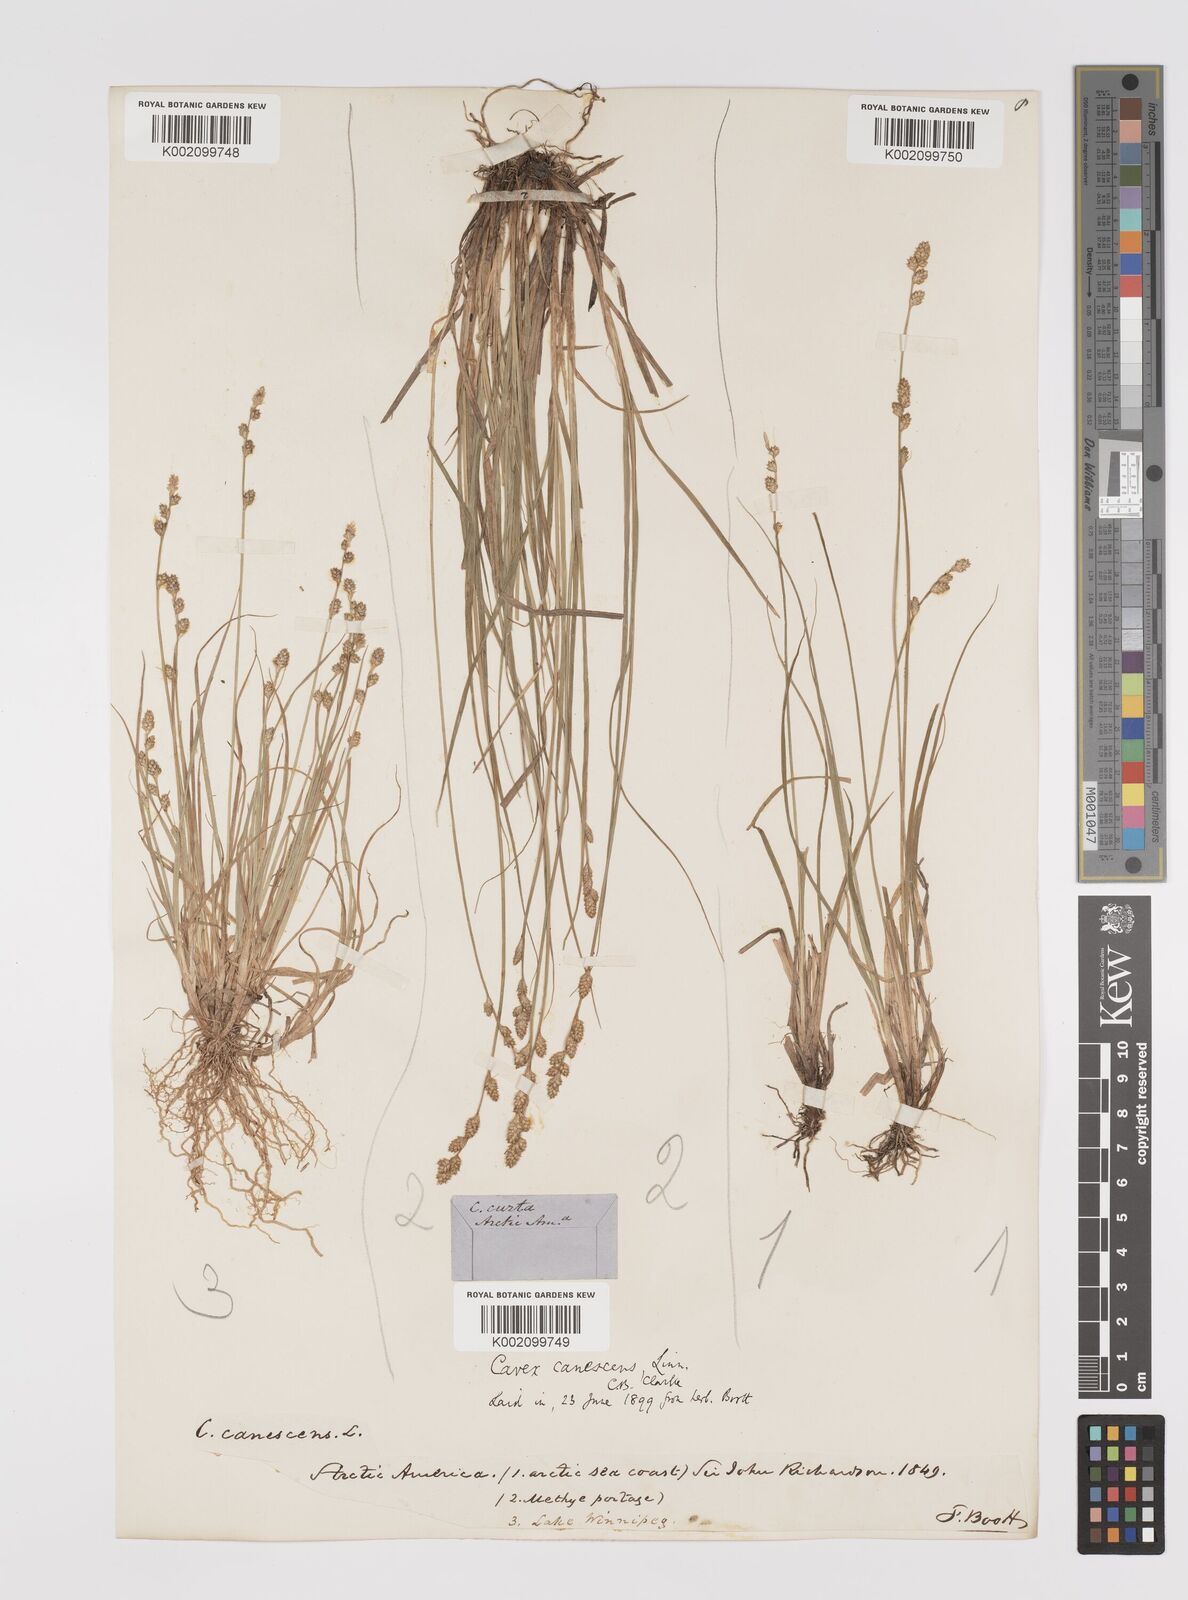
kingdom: Plantae
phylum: Tracheophyta
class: Liliopsida
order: Poales
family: Cyperaceae
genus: Carex
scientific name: Carex curta
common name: White sedge
